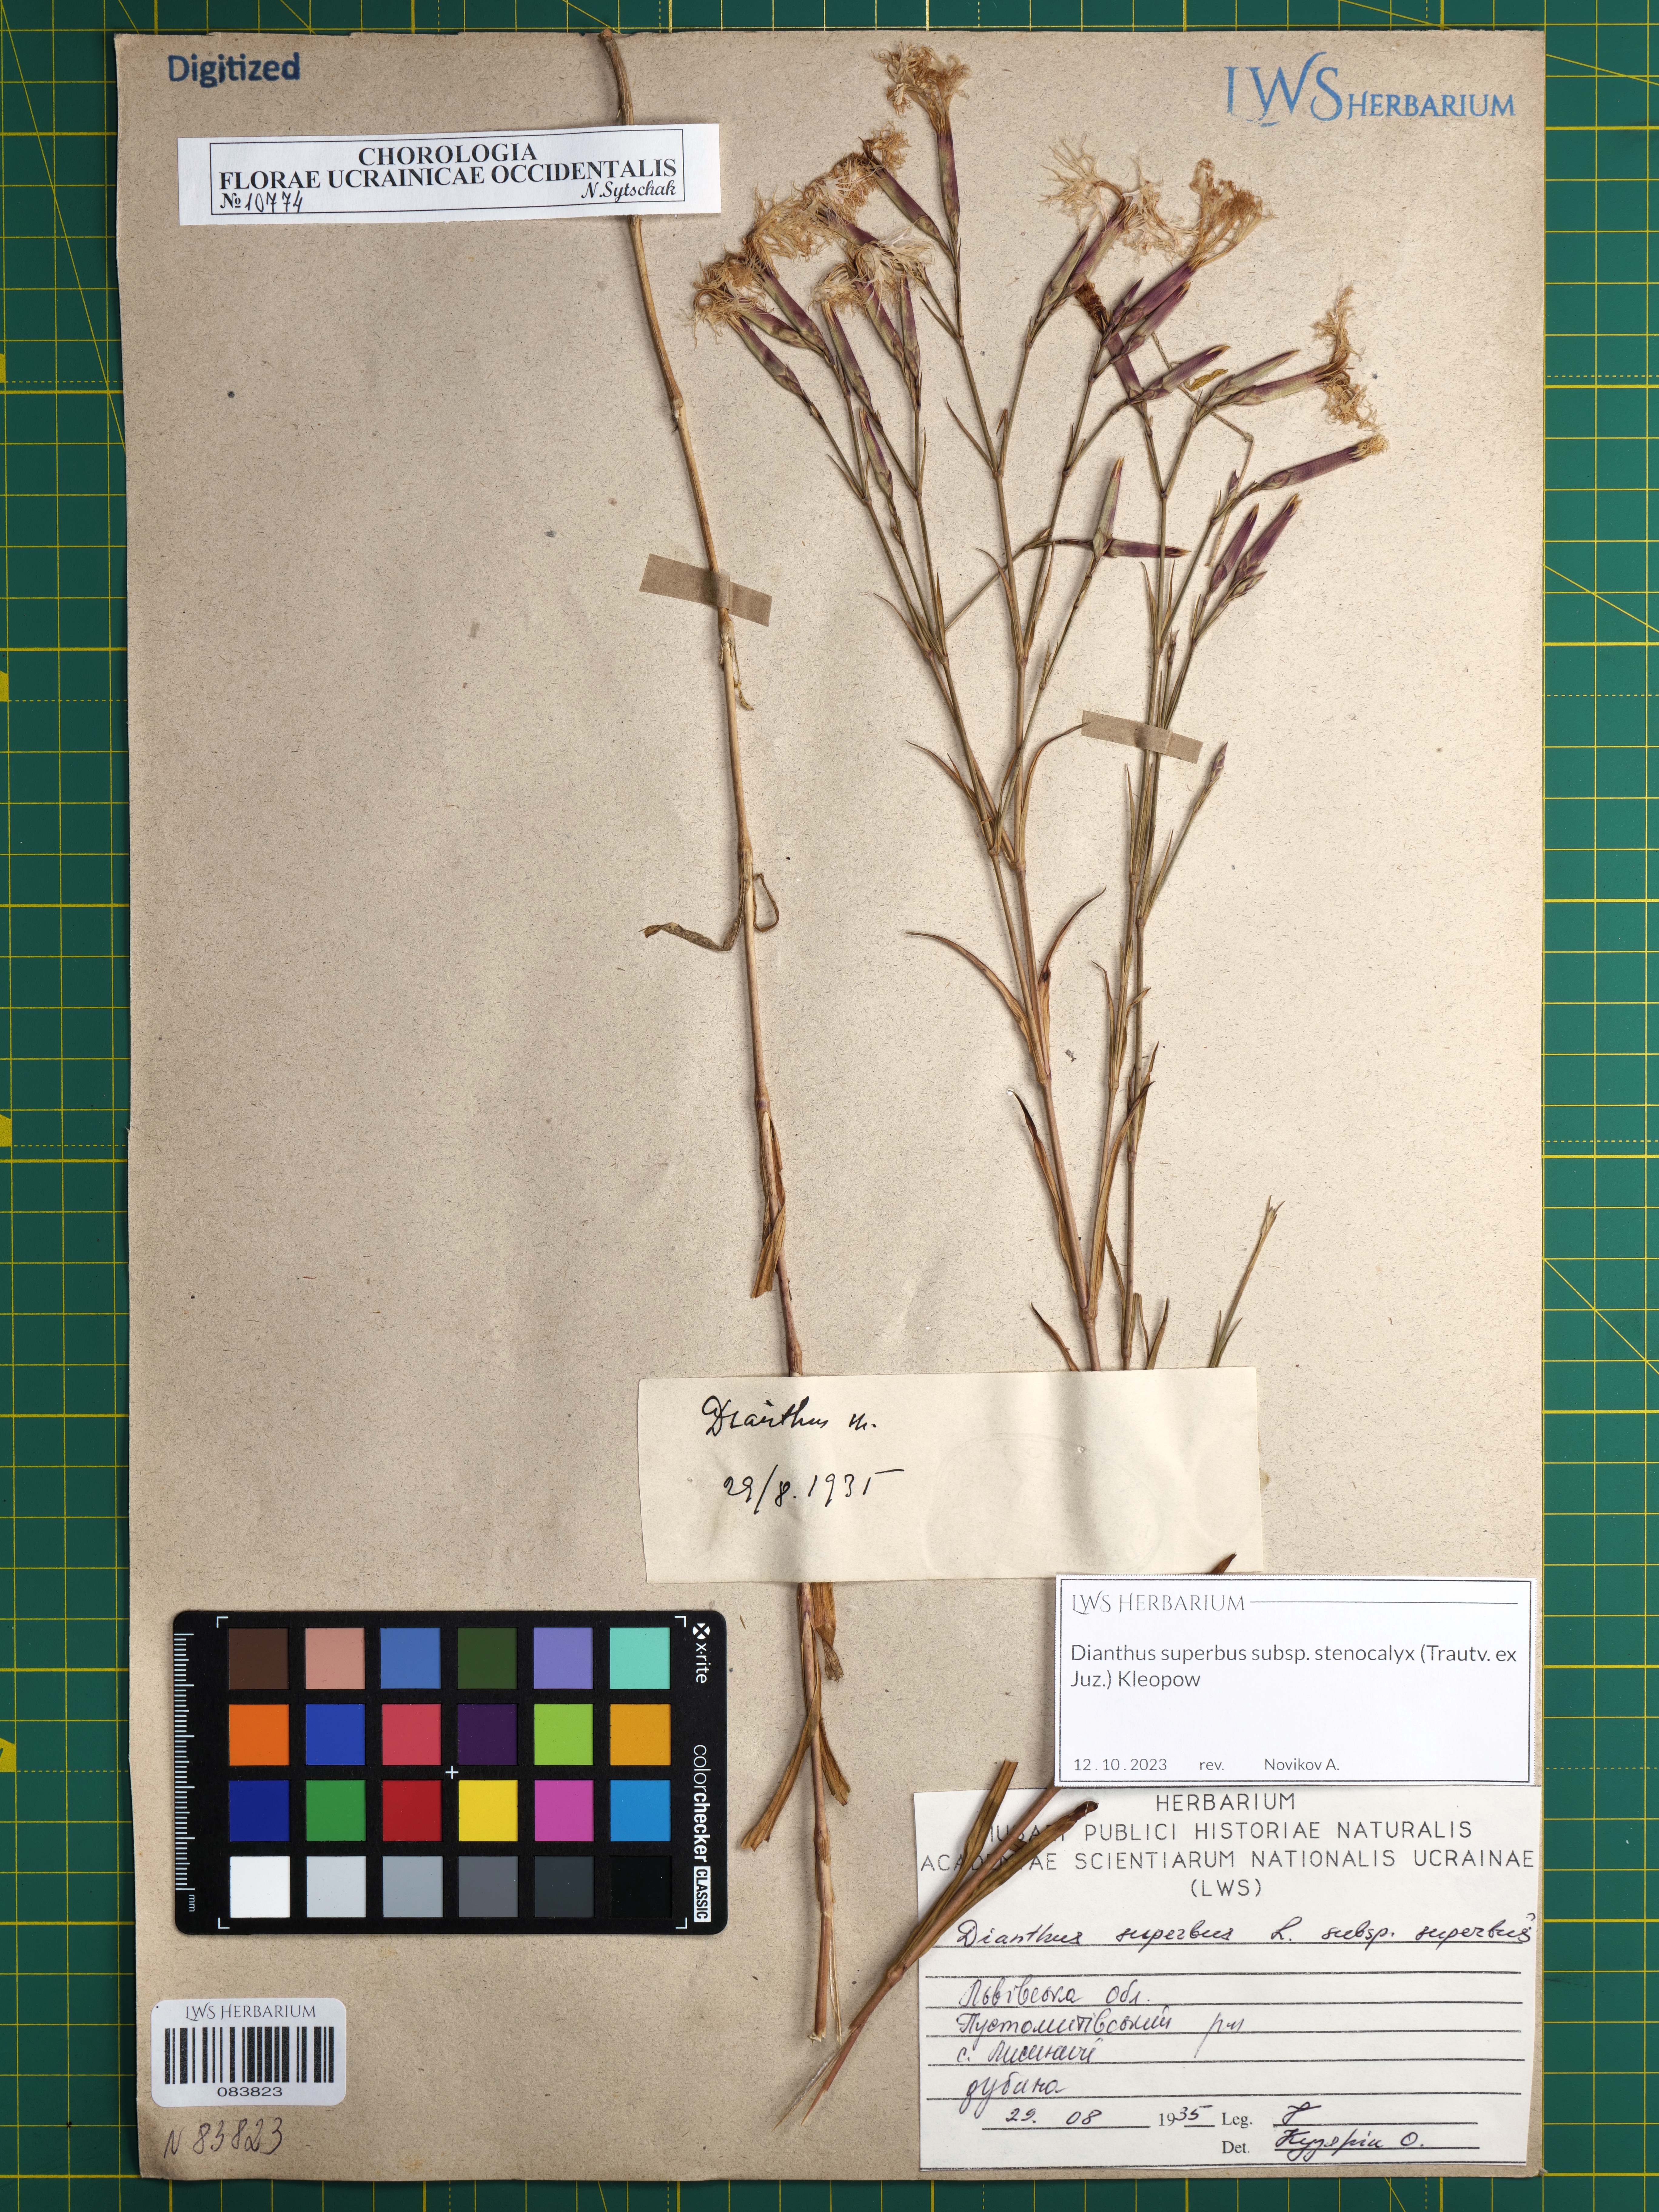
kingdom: Plantae
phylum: Tracheophyta
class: Magnoliopsida
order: Caryophyllales
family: Caryophyllaceae
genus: Dianthus
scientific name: Dianthus superbus
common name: Fringed pink
